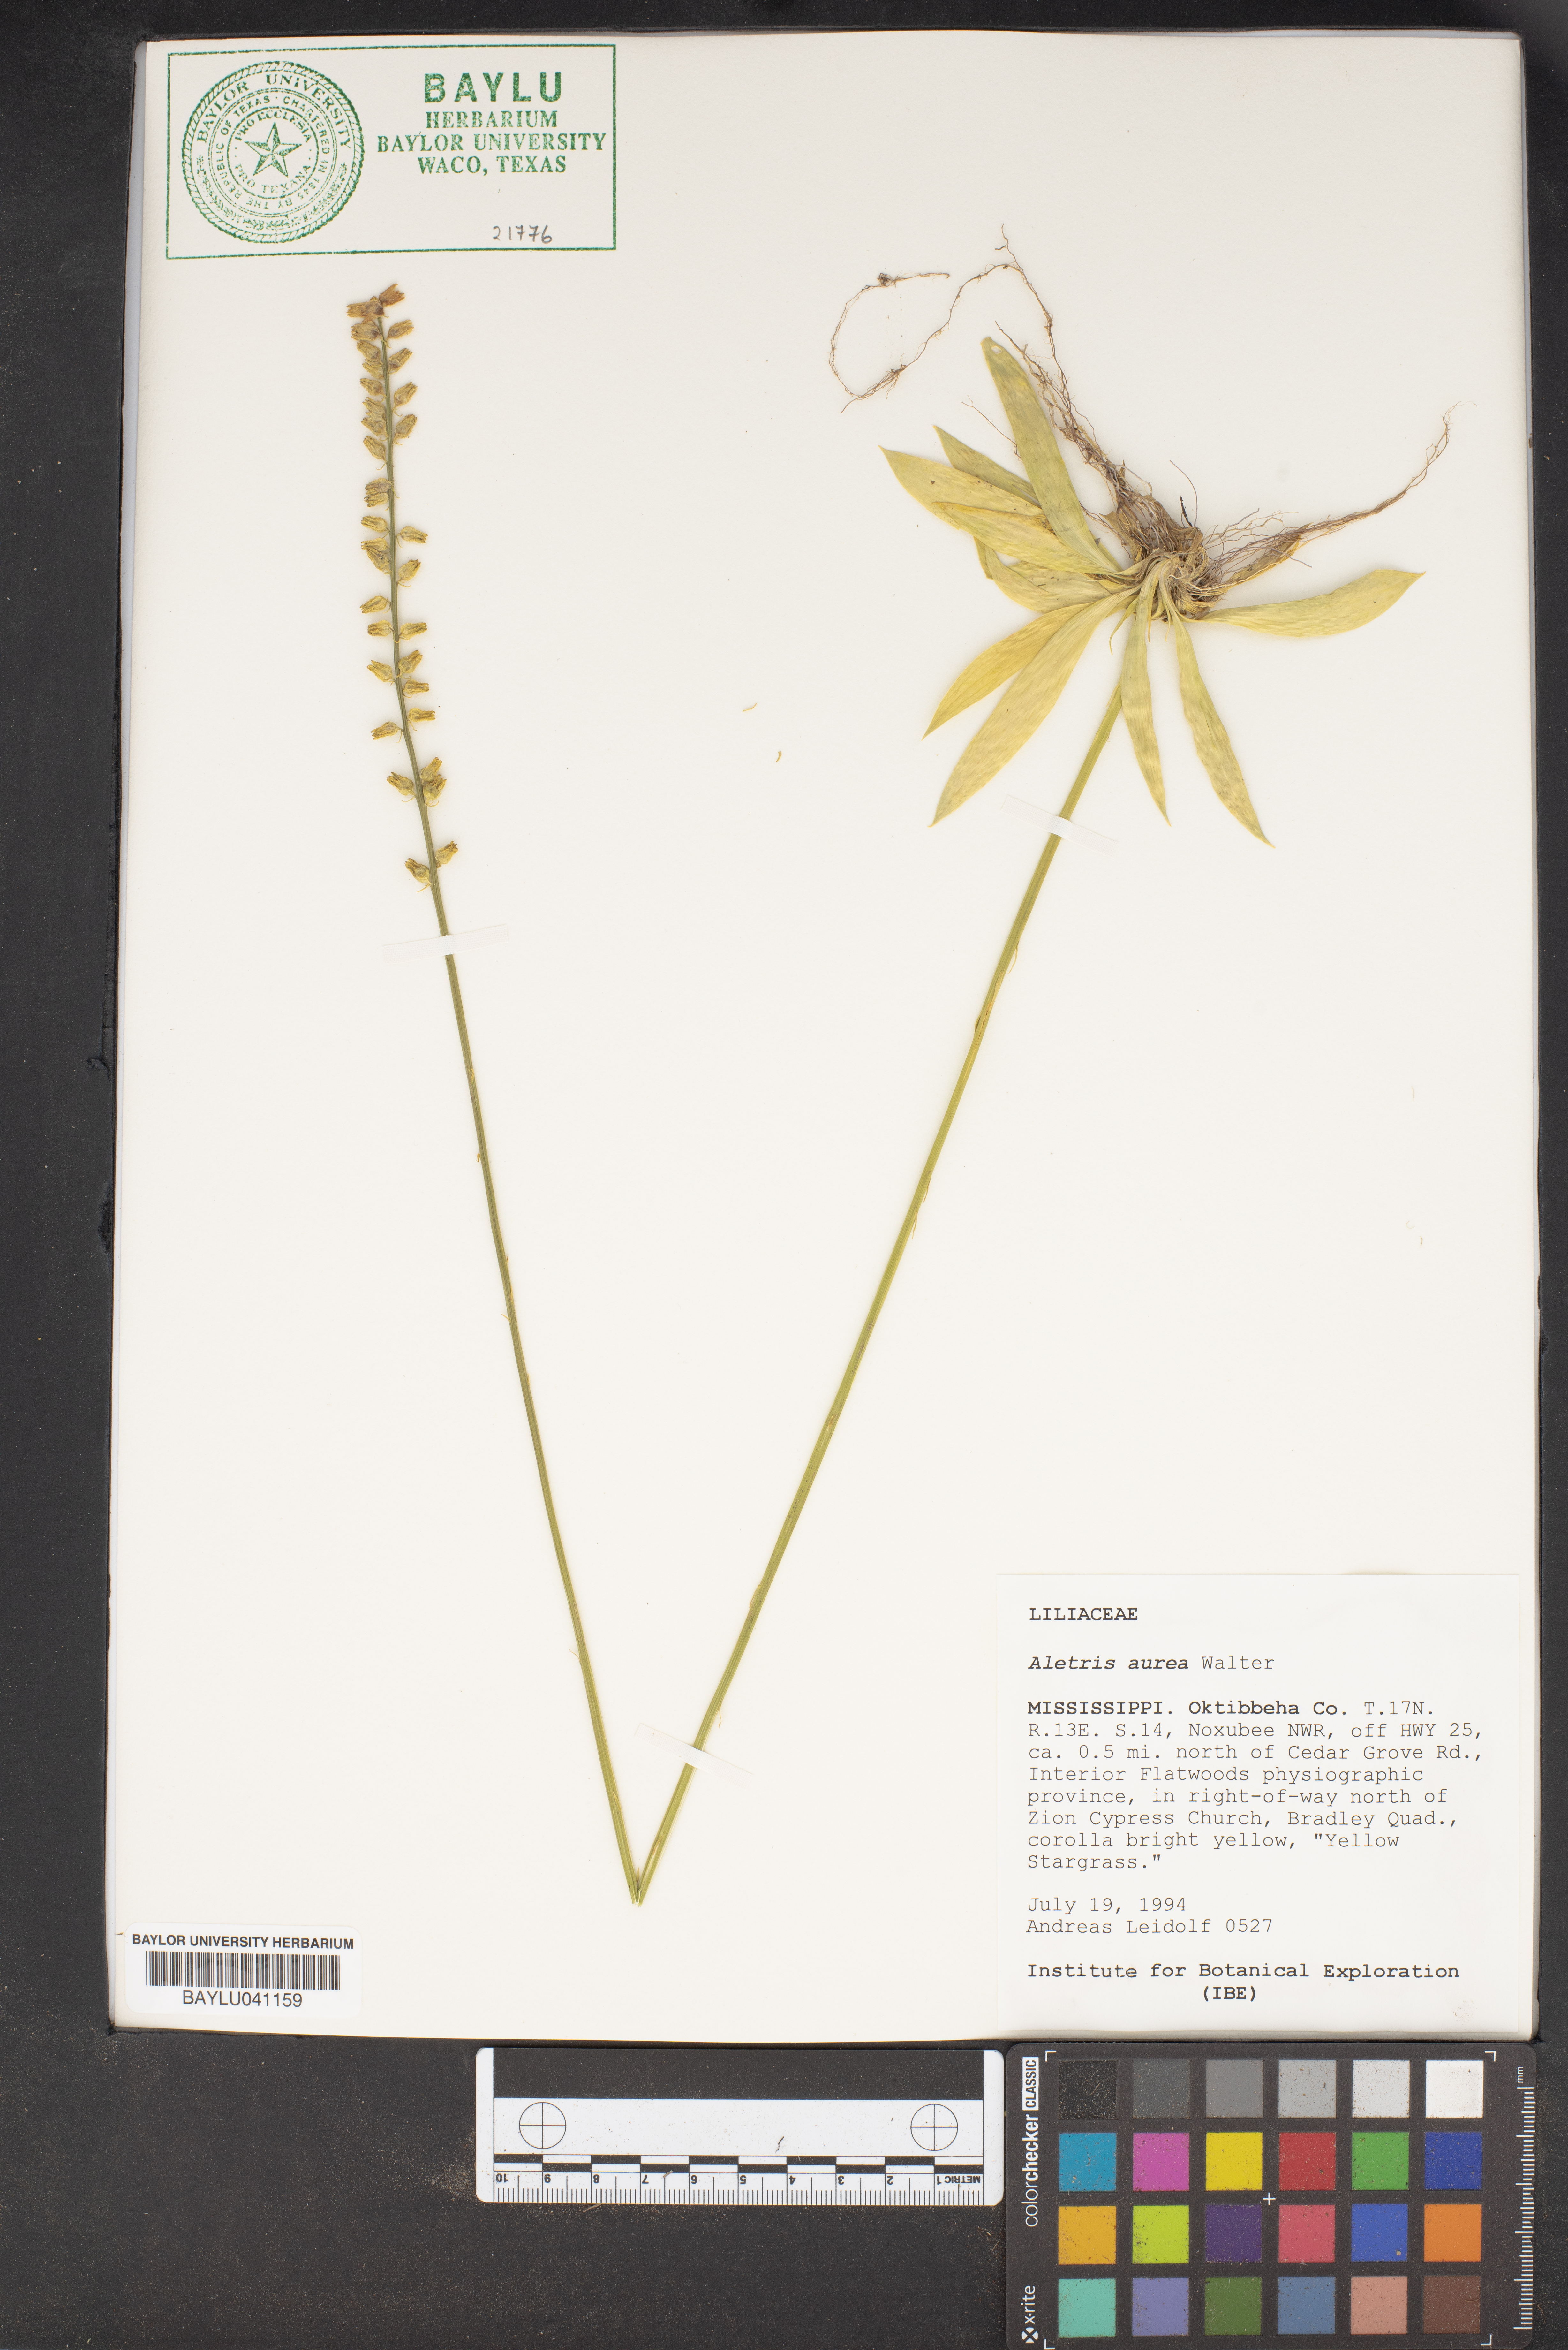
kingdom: Plantae
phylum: Tracheophyta
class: Liliopsida
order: Dioscoreales
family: Nartheciaceae
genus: Aletris
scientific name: Aletris aurea
